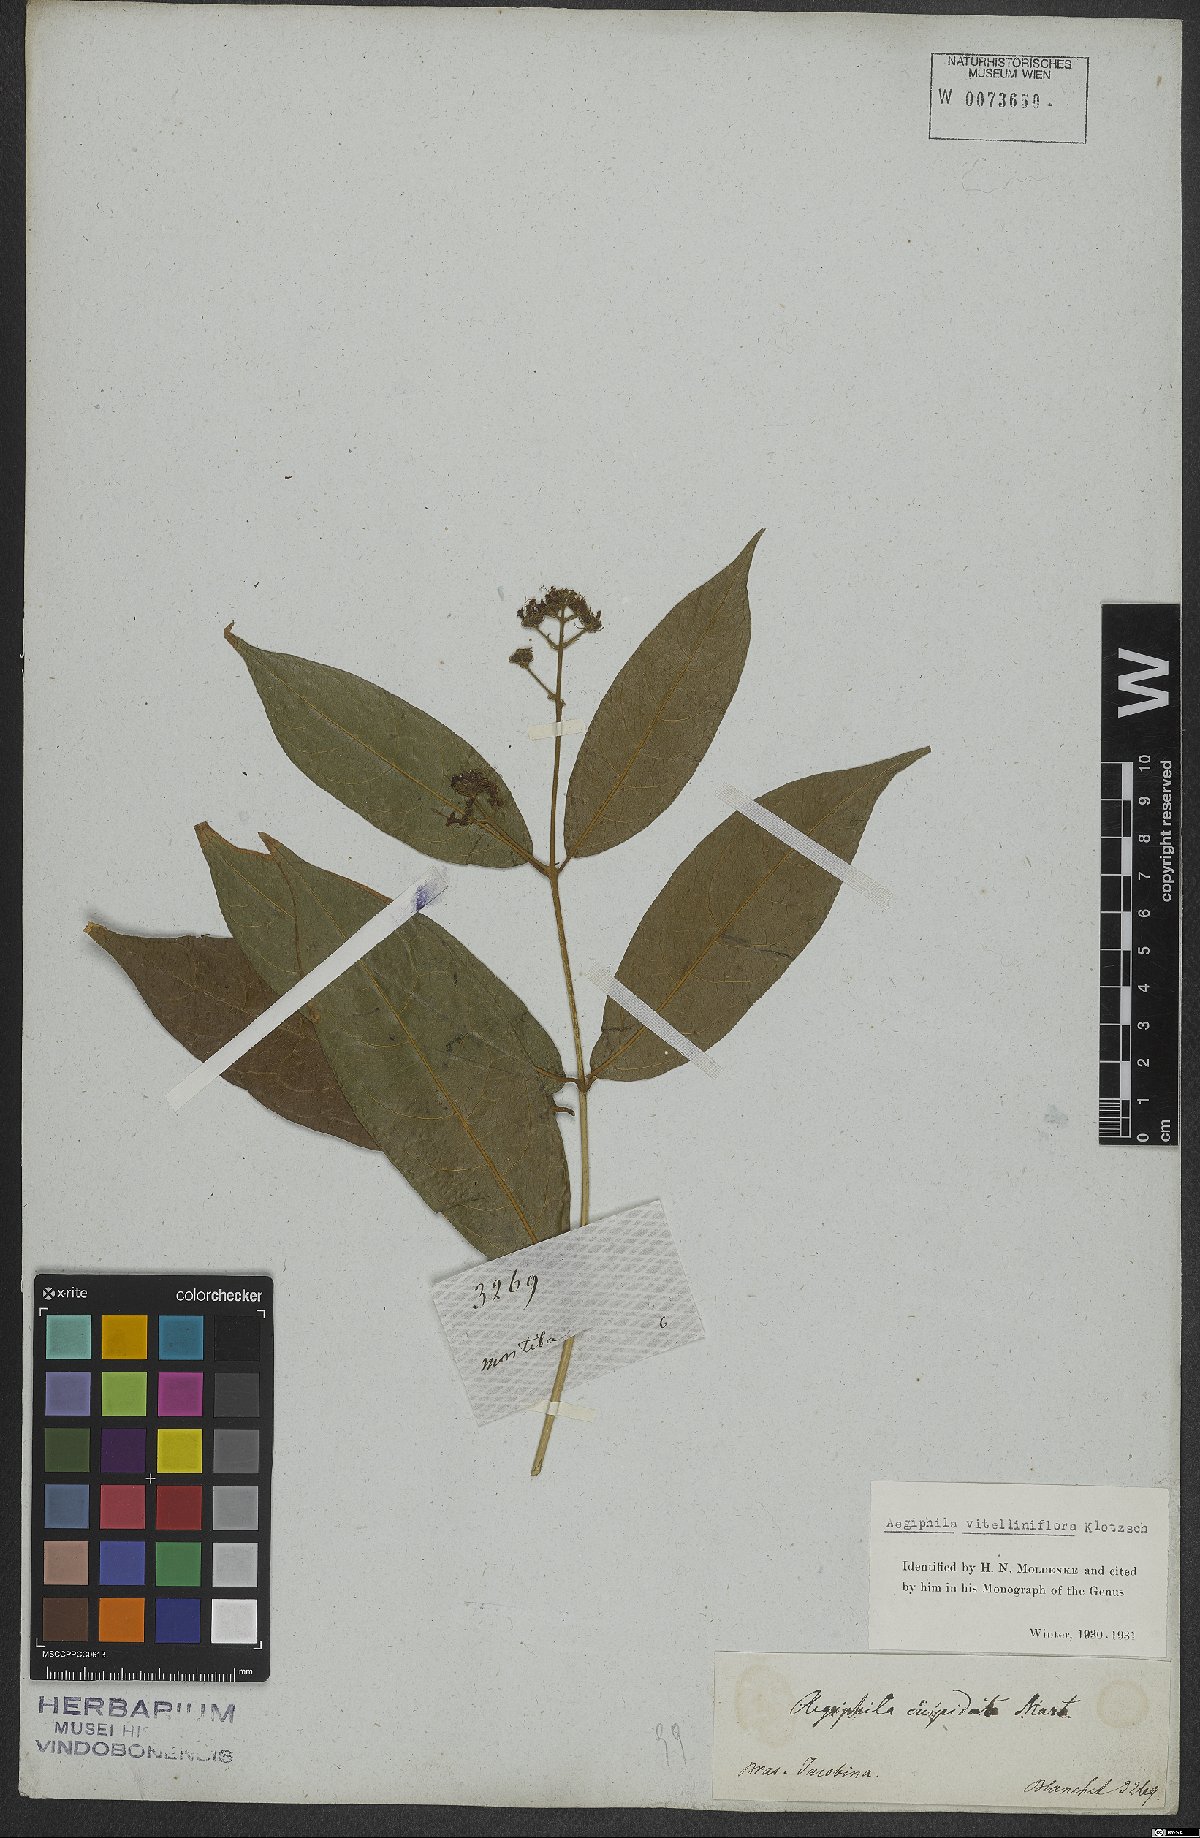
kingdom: Plantae
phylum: Tracheophyta
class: Magnoliopsida
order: Lamiales
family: Lamiaceae
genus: Aegiphila
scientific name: Aegiphila vitelliniflora
